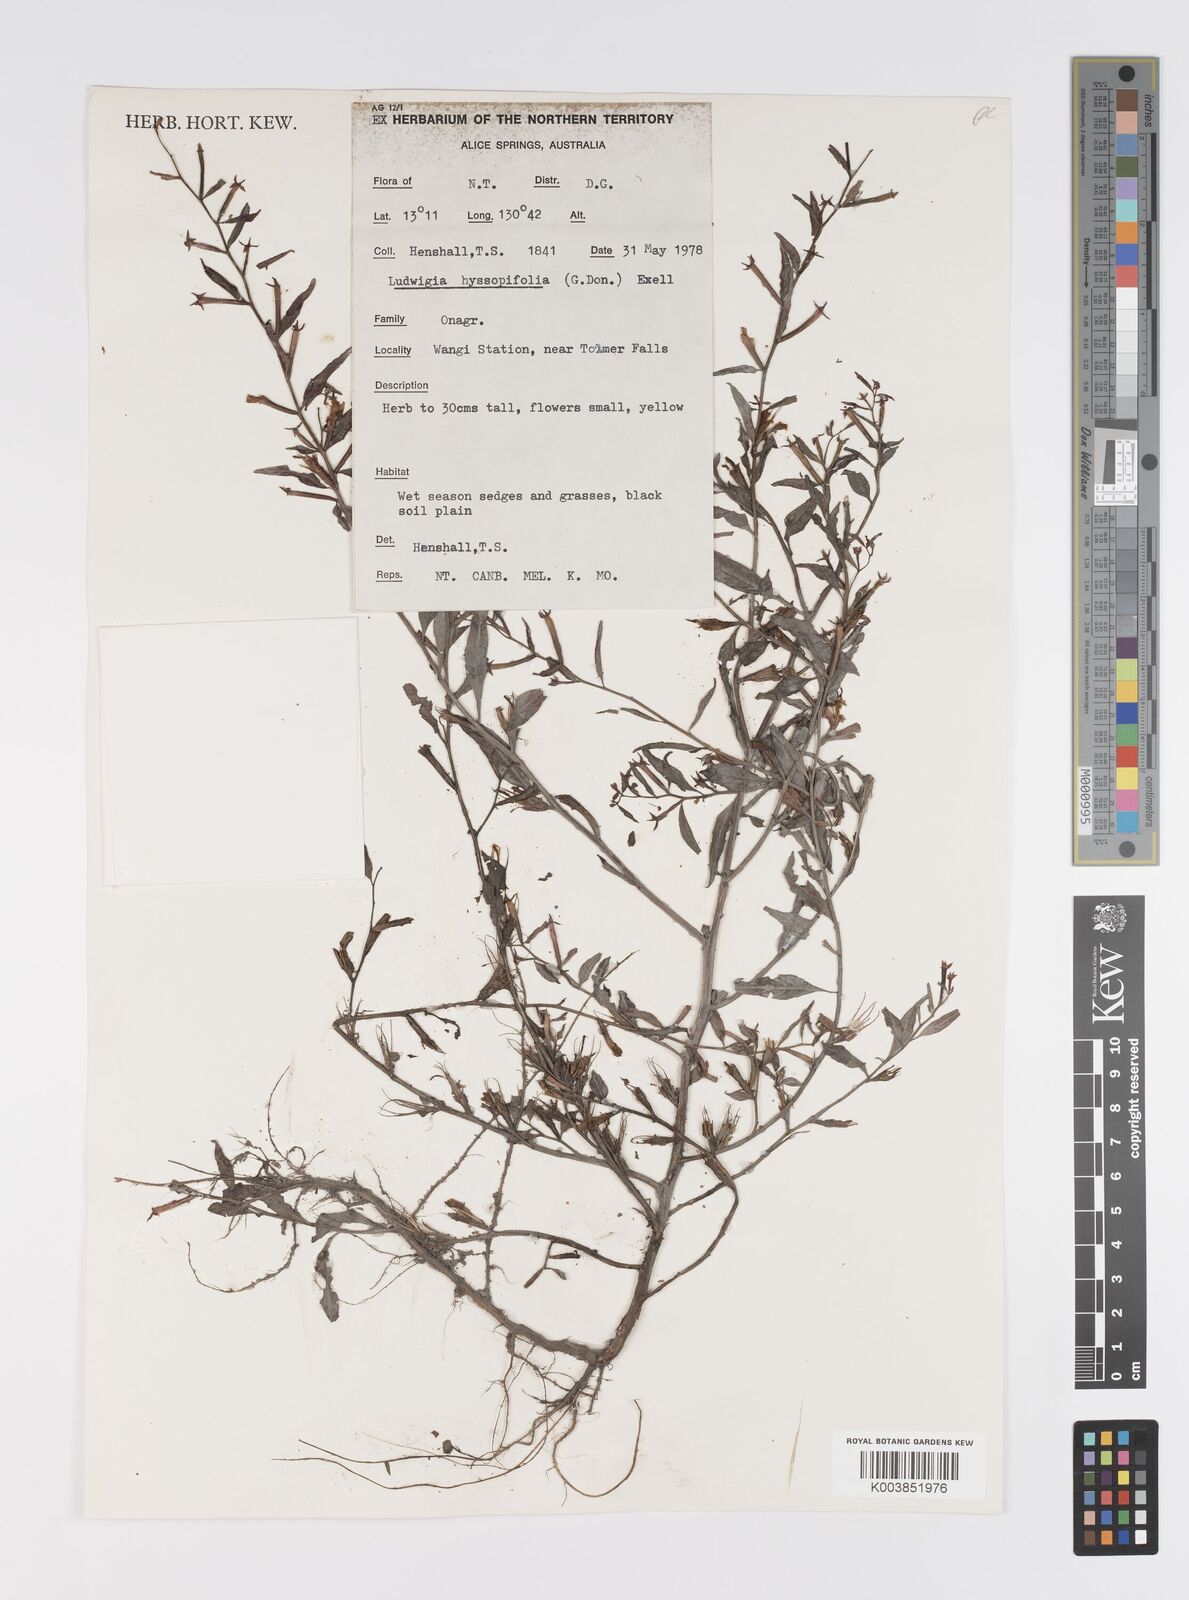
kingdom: Plantae
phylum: Tracheophyta
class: Magnoliopsida
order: Myrtales
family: Onagraceae
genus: Ludwigia
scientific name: Ludwigia hyssopifolia
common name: Linear leaf water primrose
